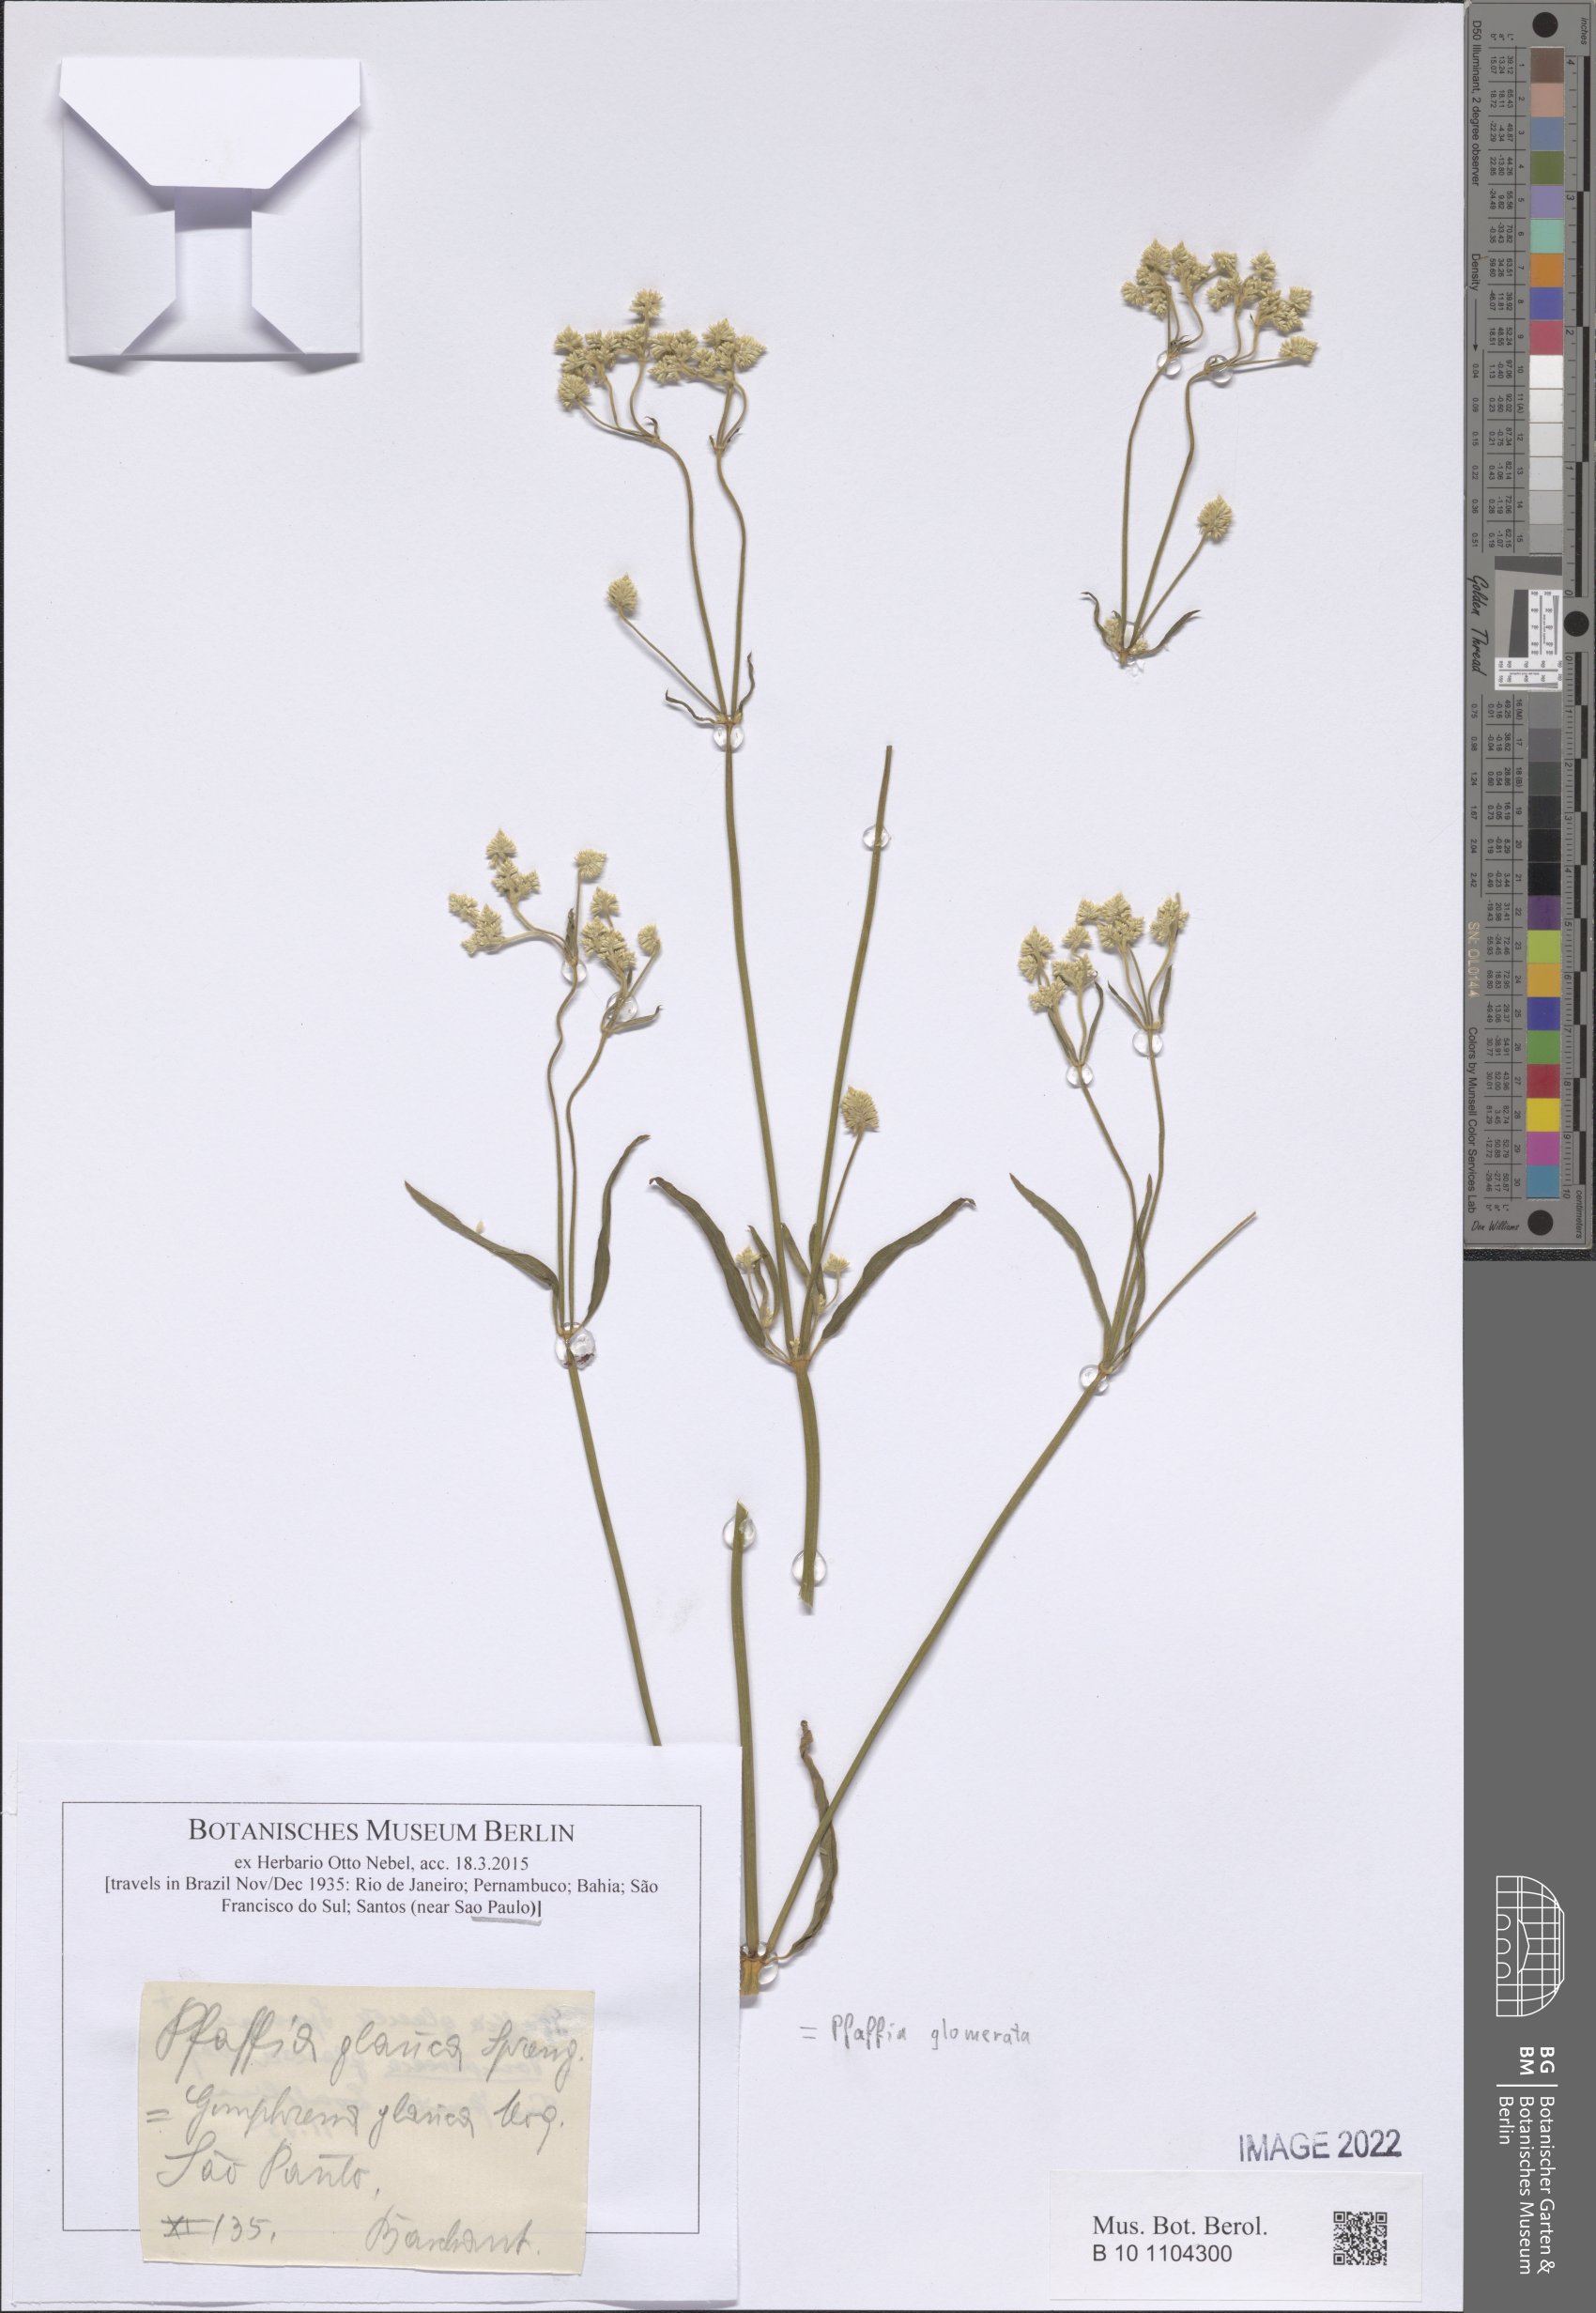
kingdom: Plantae
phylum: Tracheophyta
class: Magnoliopsida
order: Caryophyllales
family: Amaranthaceae
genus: Pfaffia
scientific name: Pfaffia glomerata
